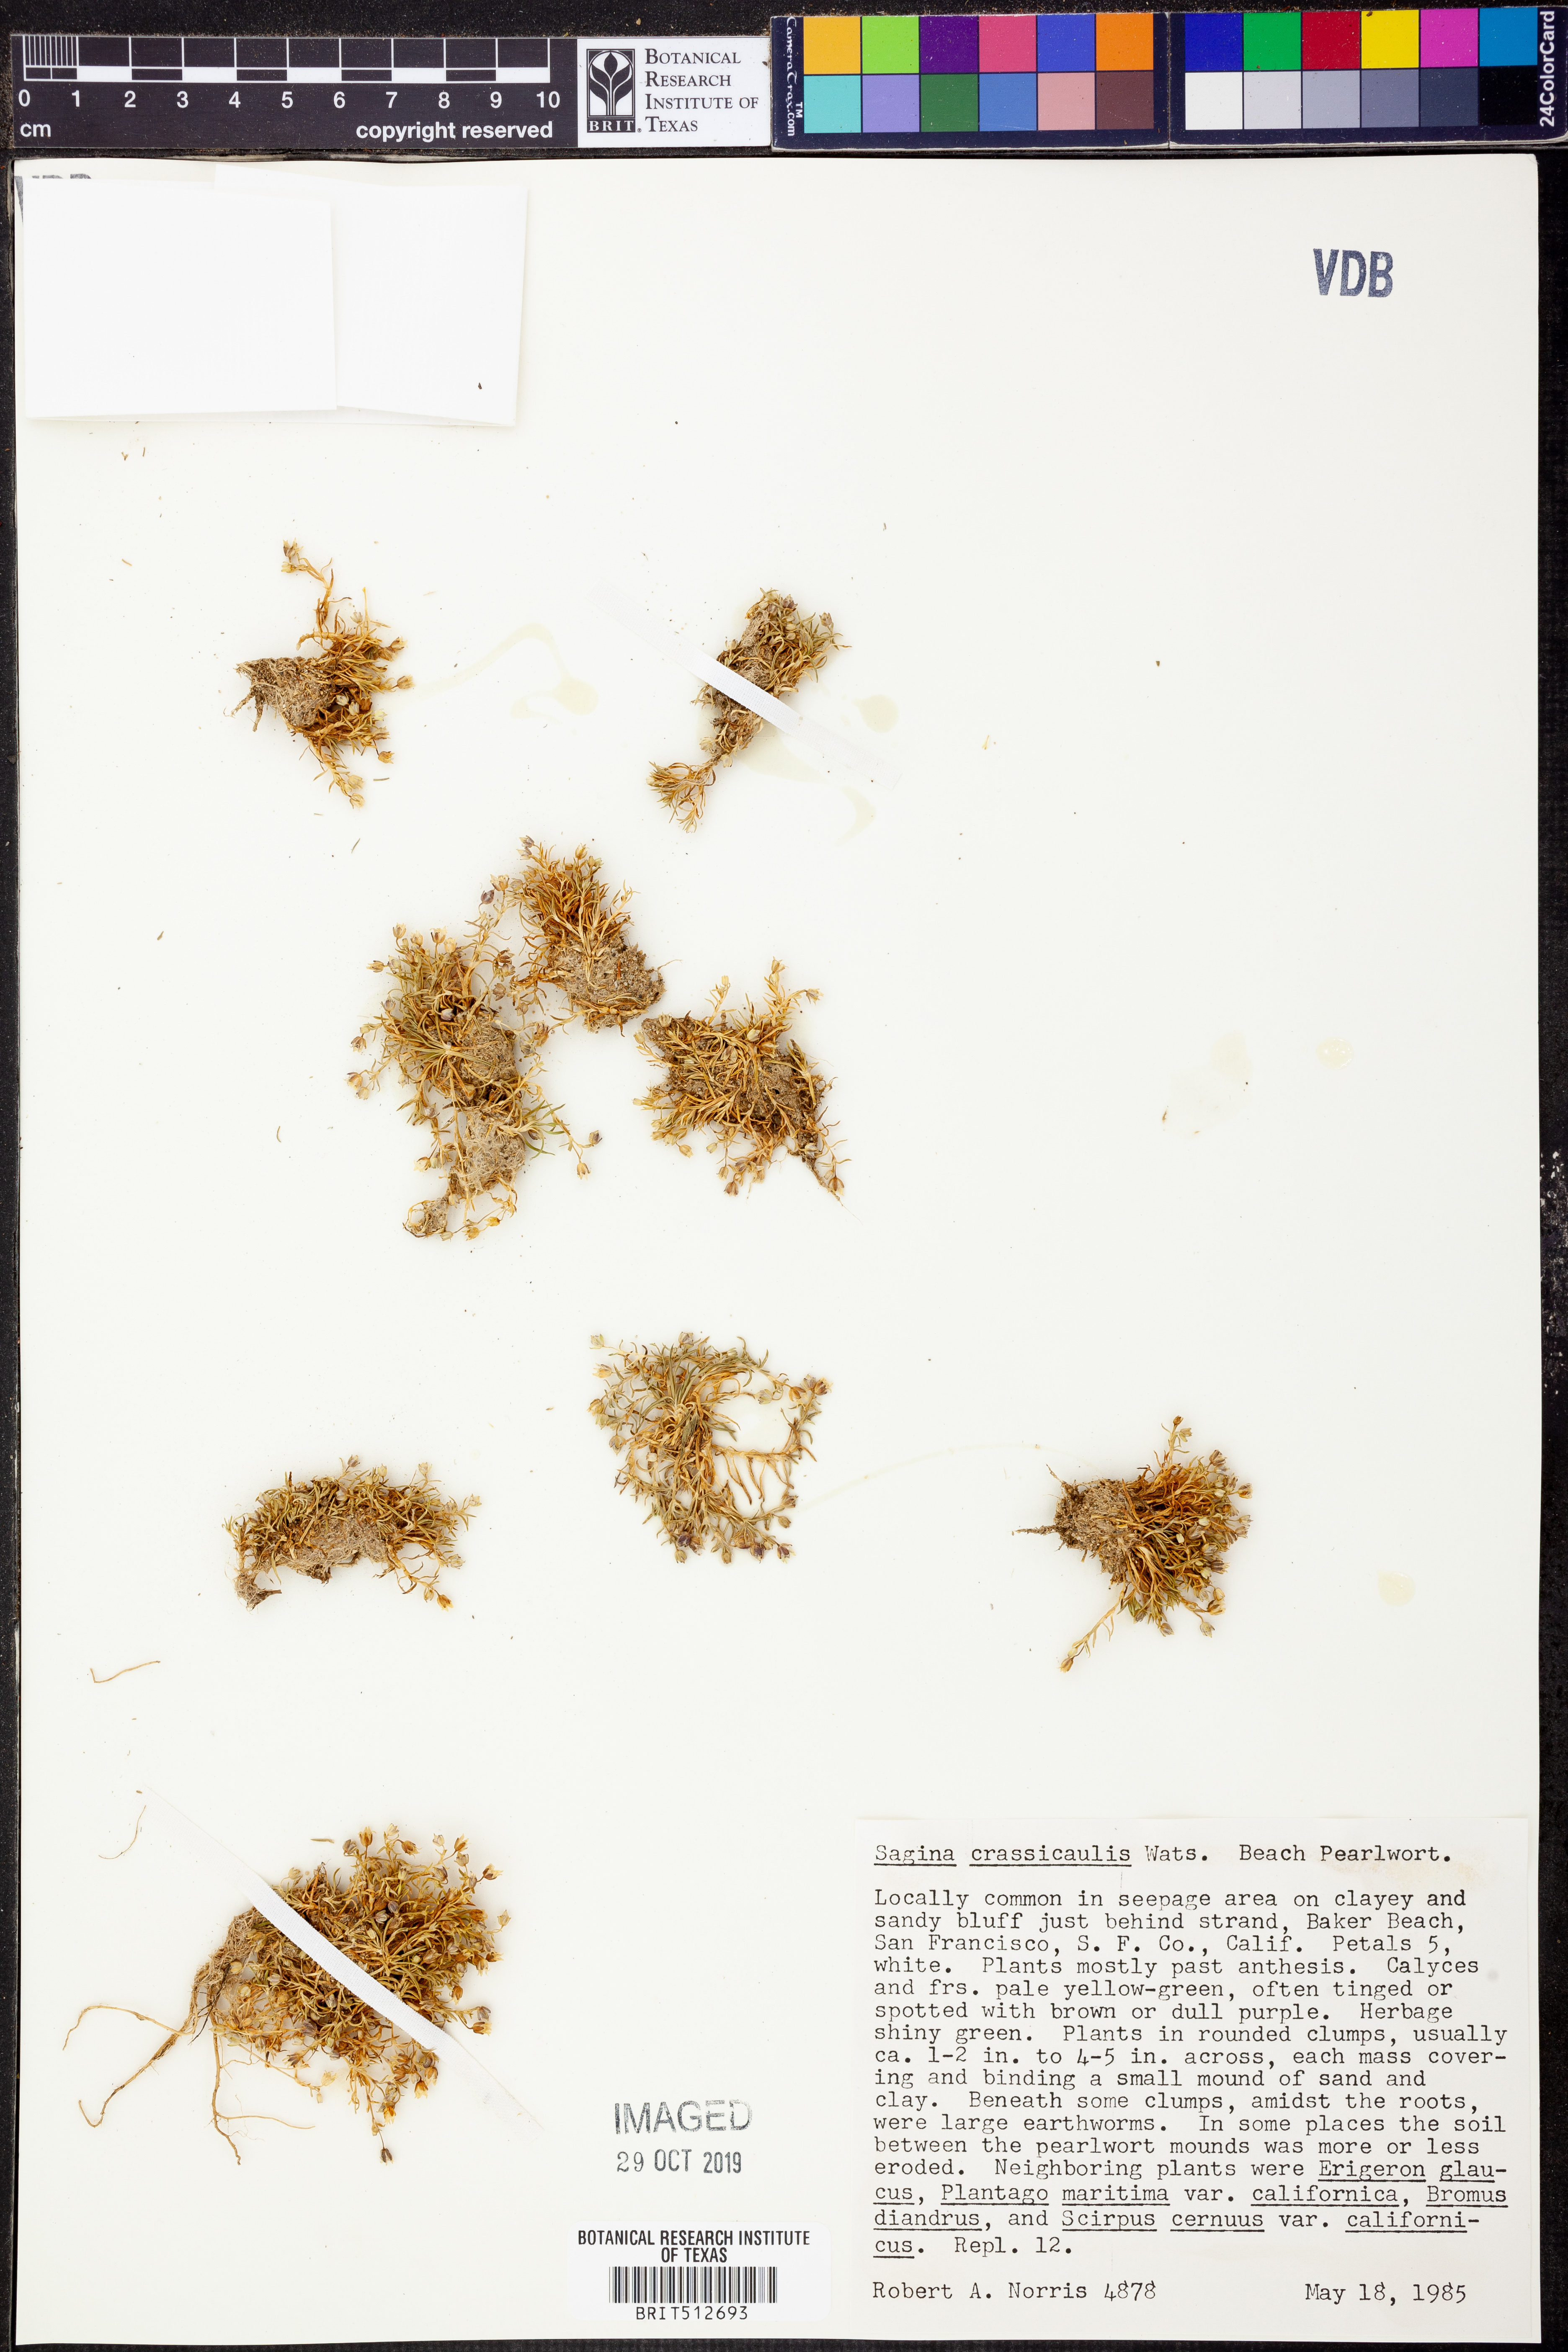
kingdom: Plantae
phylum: Tracheophyta
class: Magnoliopsida
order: Caryophyllales
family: Caryophyllaceae
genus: Sagina
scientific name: Sagina maxima
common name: Coastal pearlwort
